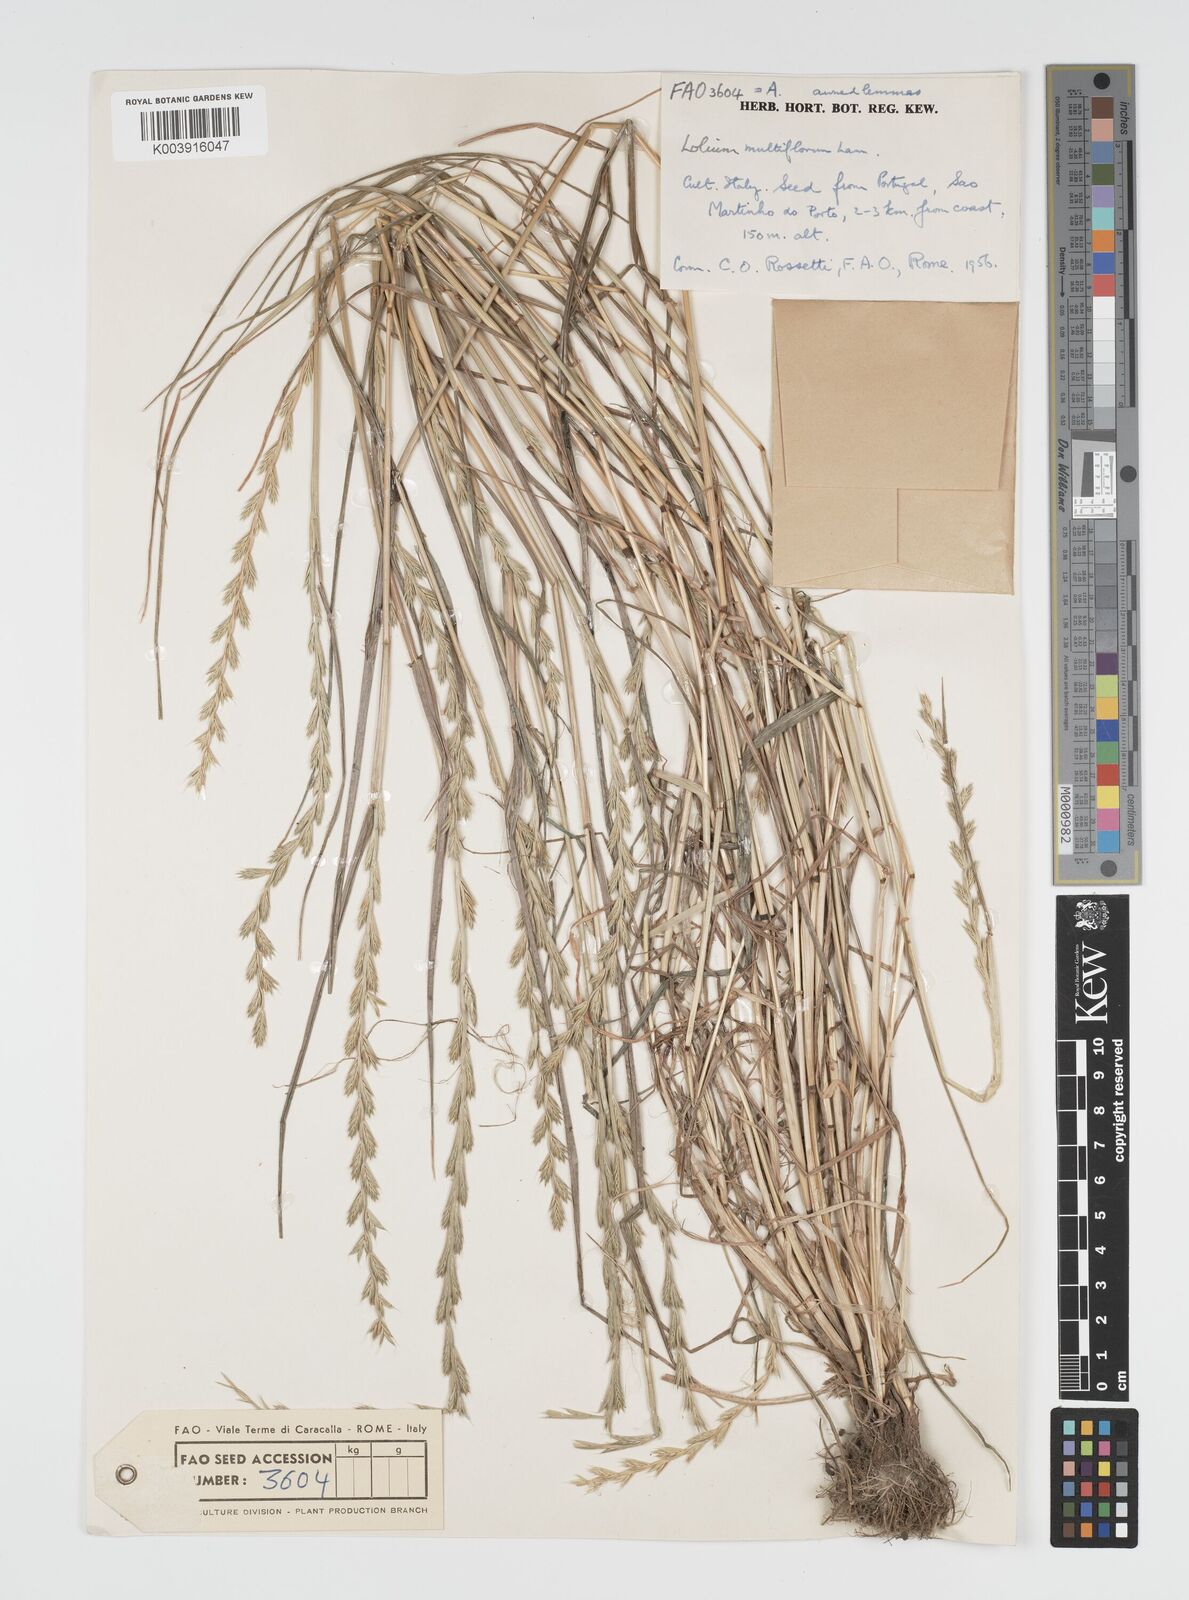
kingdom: Plantae
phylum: Tracheophyta
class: Liliopsida
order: Poales
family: Poaceae
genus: Lolium
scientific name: Lolium multiflorum
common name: Annual ryegrass
